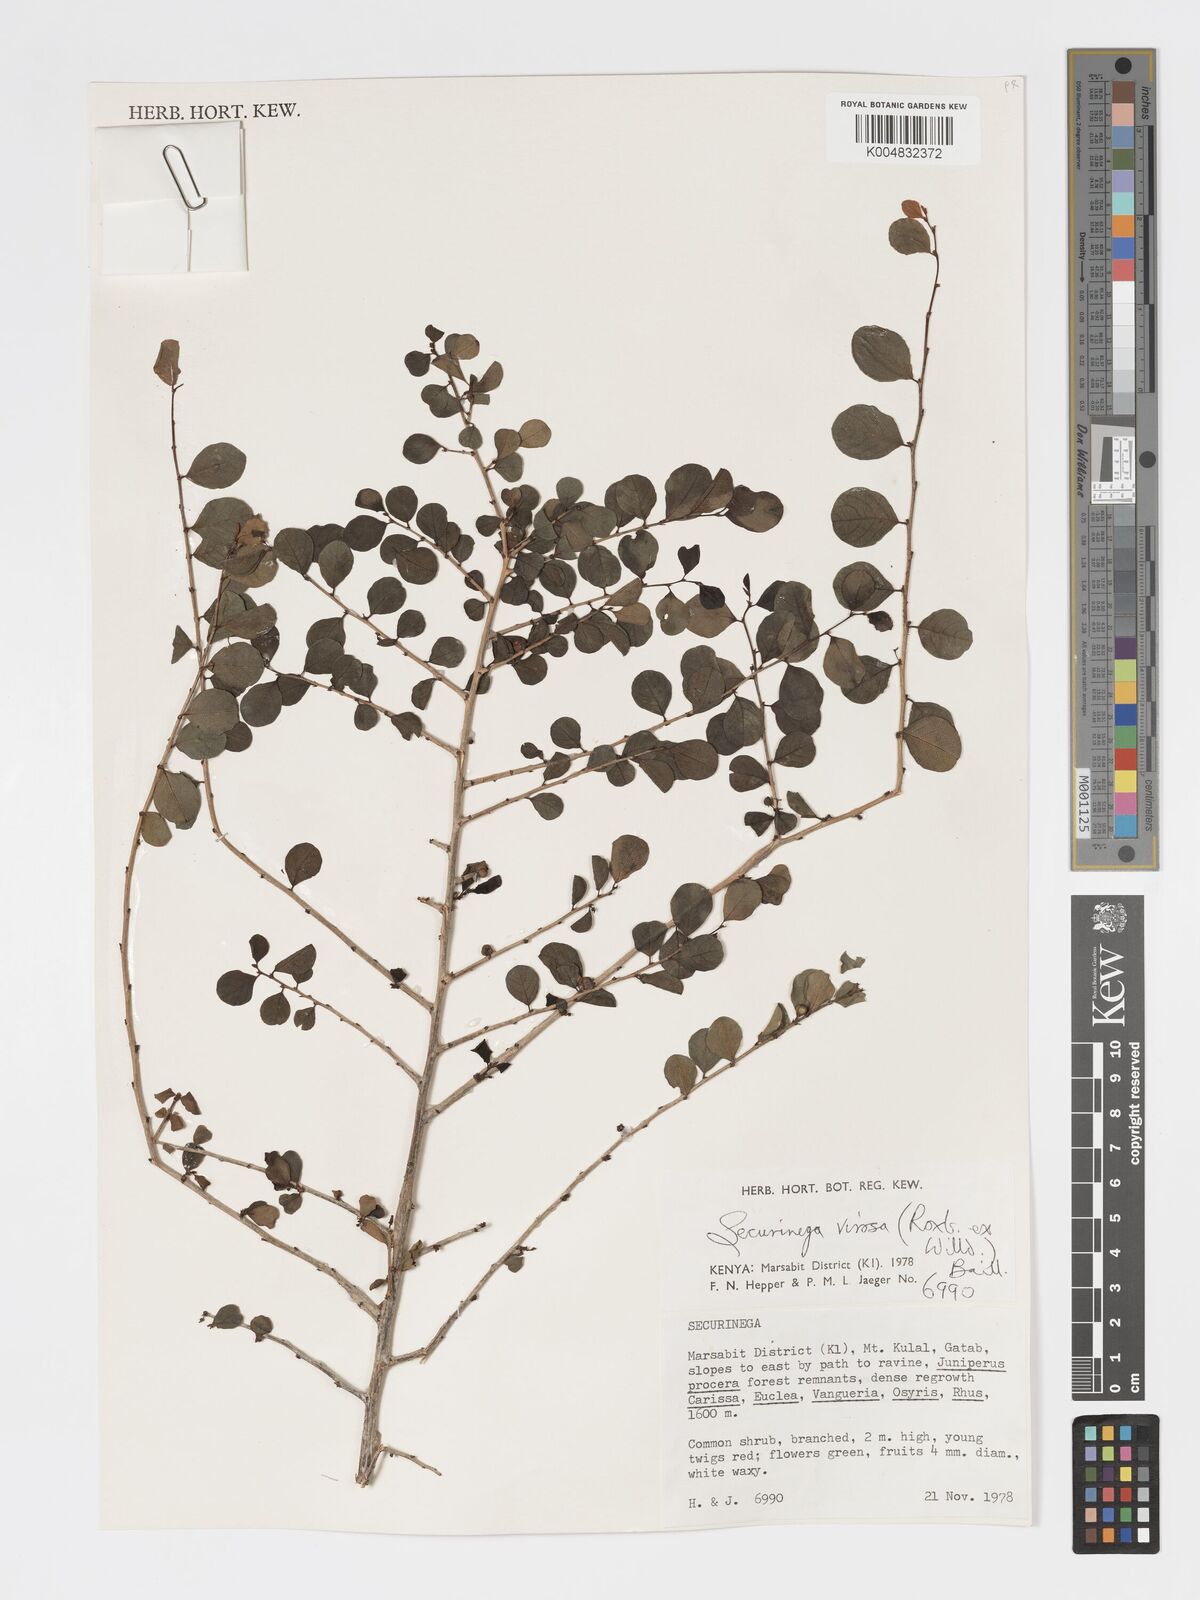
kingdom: Plantae
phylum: Tracheophyta
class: Magnoliopsida
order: Malpighiales
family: Phyllanthaceae
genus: Flueggea
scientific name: Flueggea virosa
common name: Common bushweed
